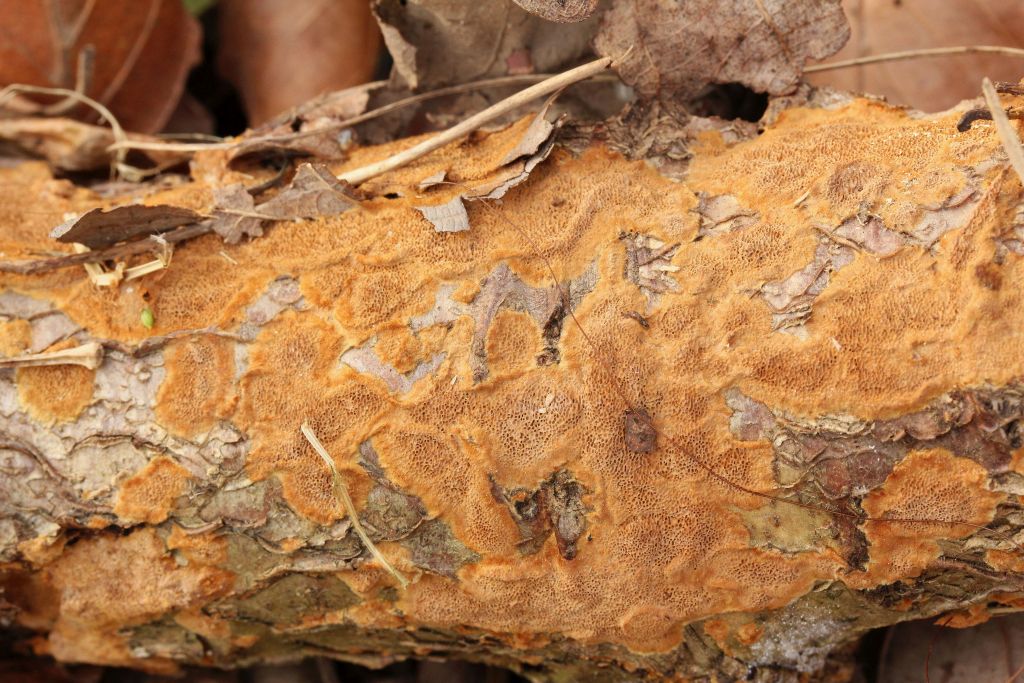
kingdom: Fungi
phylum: Basidiomycota
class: Agaricomycetes
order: Hymenochaetales
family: Hymenochaetaceae
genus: Fuscoporia
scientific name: Fuscoporia ferruginosa
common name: rustbrun ildporesvamp
